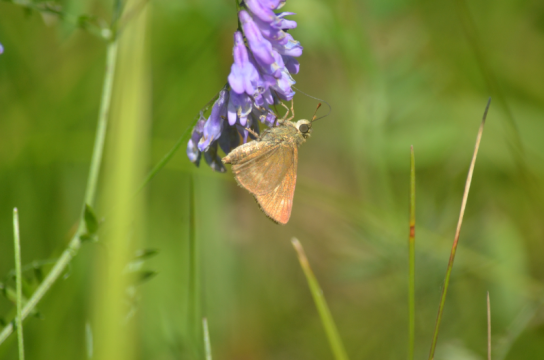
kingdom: Animalia
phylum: Arthropoda
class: Insecta
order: Lepidoptera
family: Hesperiidae
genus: Polites
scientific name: Polites egeremet
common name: Northern Broken-Dash
